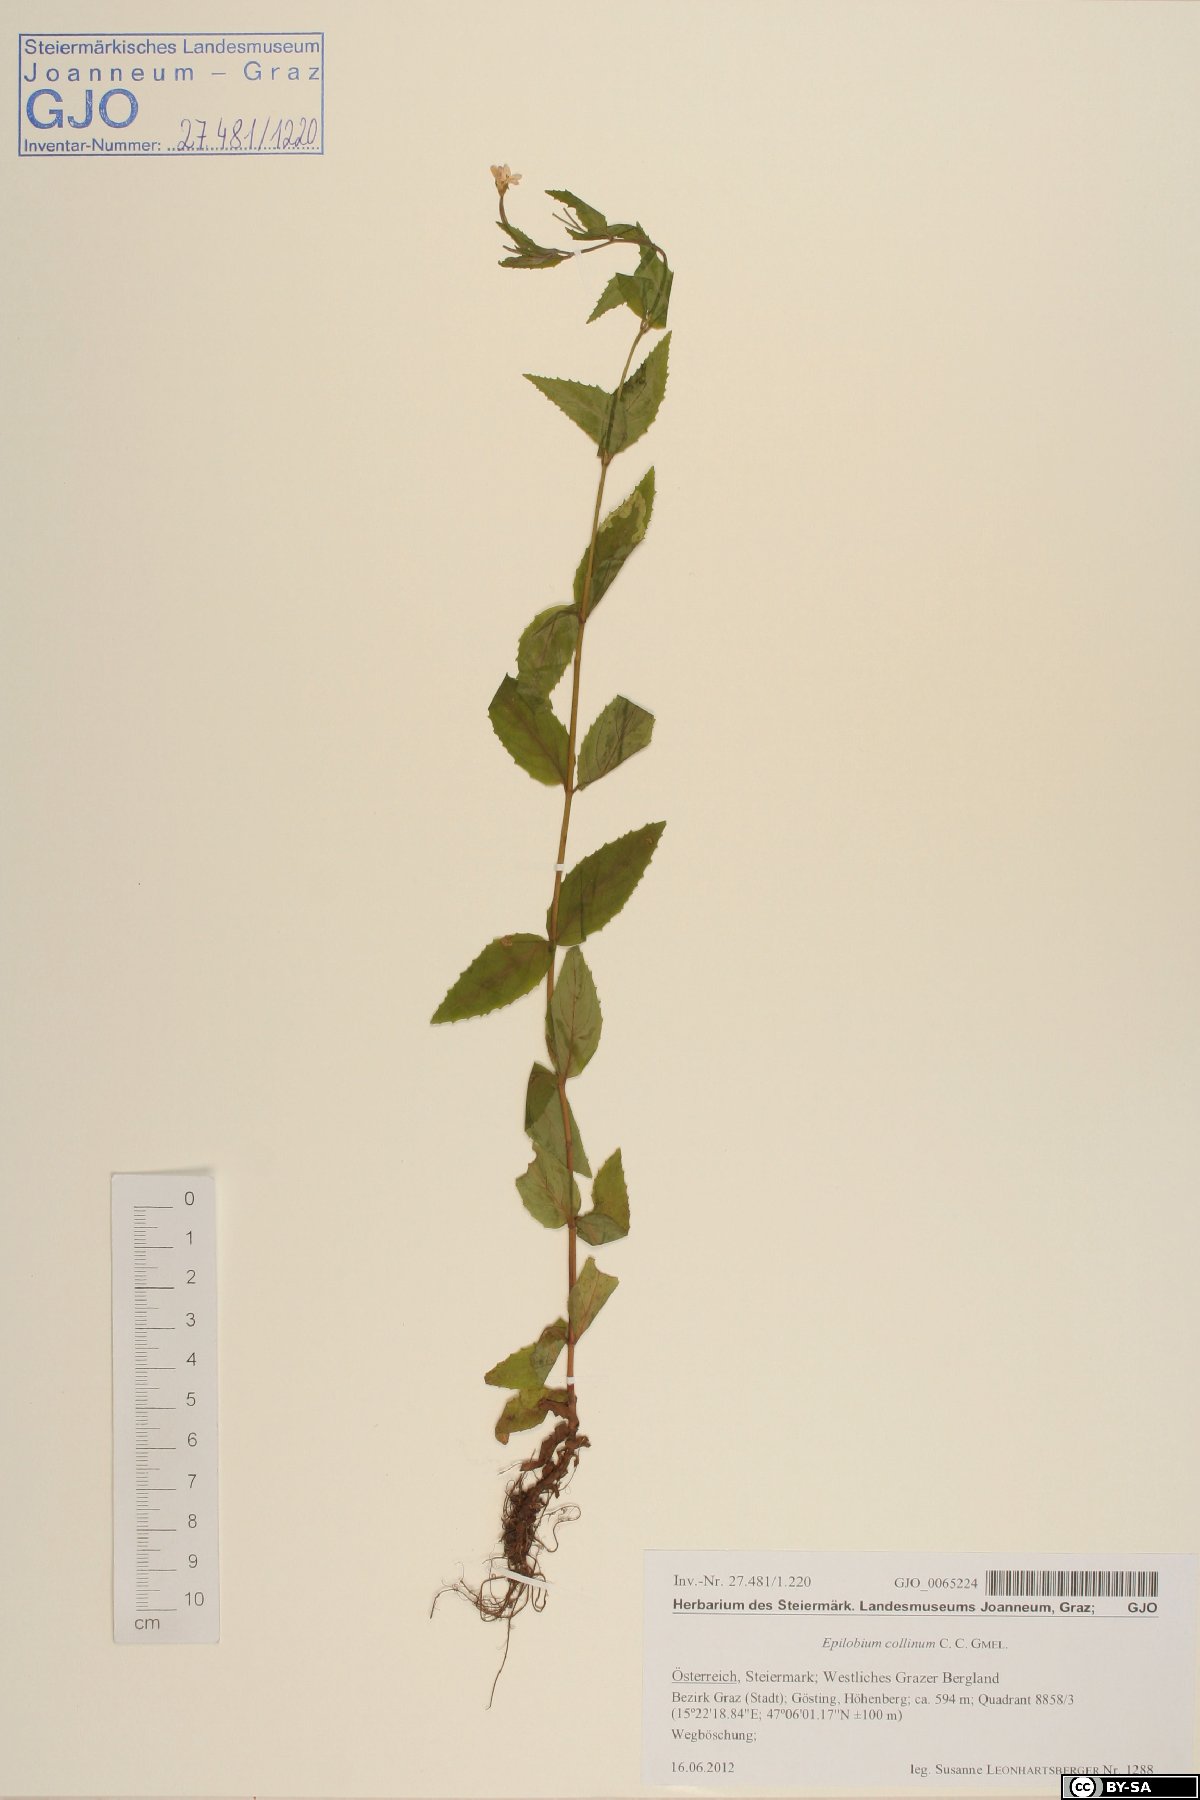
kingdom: Plantae
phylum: Tracheophyta
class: Magnoliopsida
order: Myrtales
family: Onagraceae
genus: Epilobium
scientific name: Epilobium collinum
